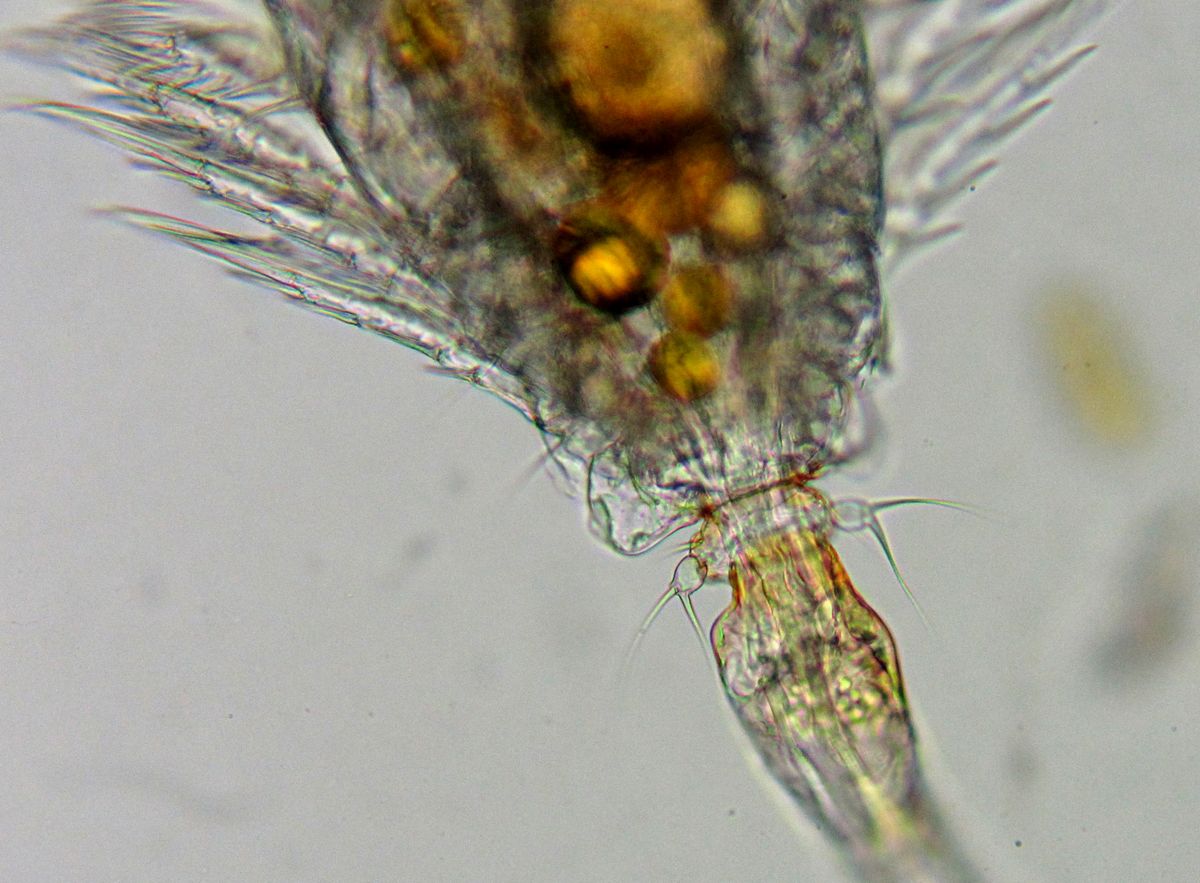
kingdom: Animalia
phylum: Arthropoda
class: Copepoda
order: Cyclopoida
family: Oncaeidae
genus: Triconia
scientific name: Triconia borealis
